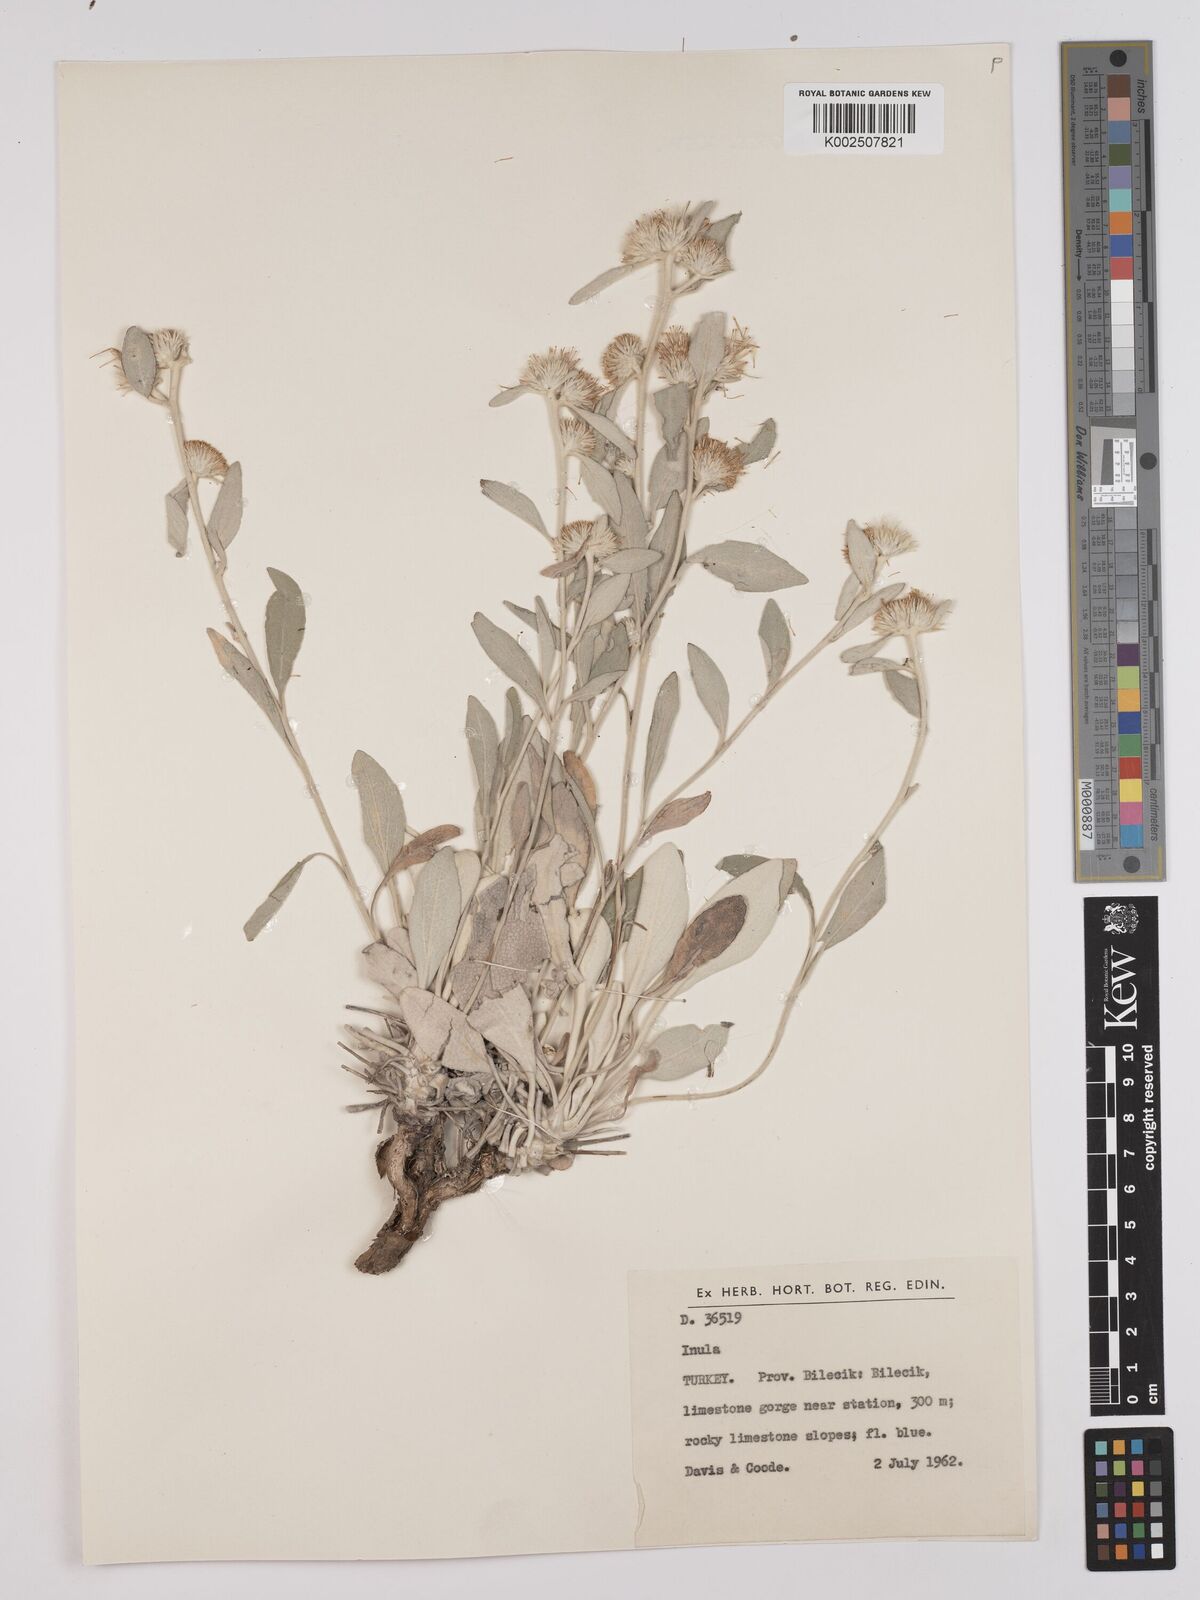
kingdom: Plantae
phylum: Tracheophyta
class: Magnoliopsida
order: Asterales
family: Asteraceae
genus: Pentanema
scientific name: Pentanema verbascifolium
